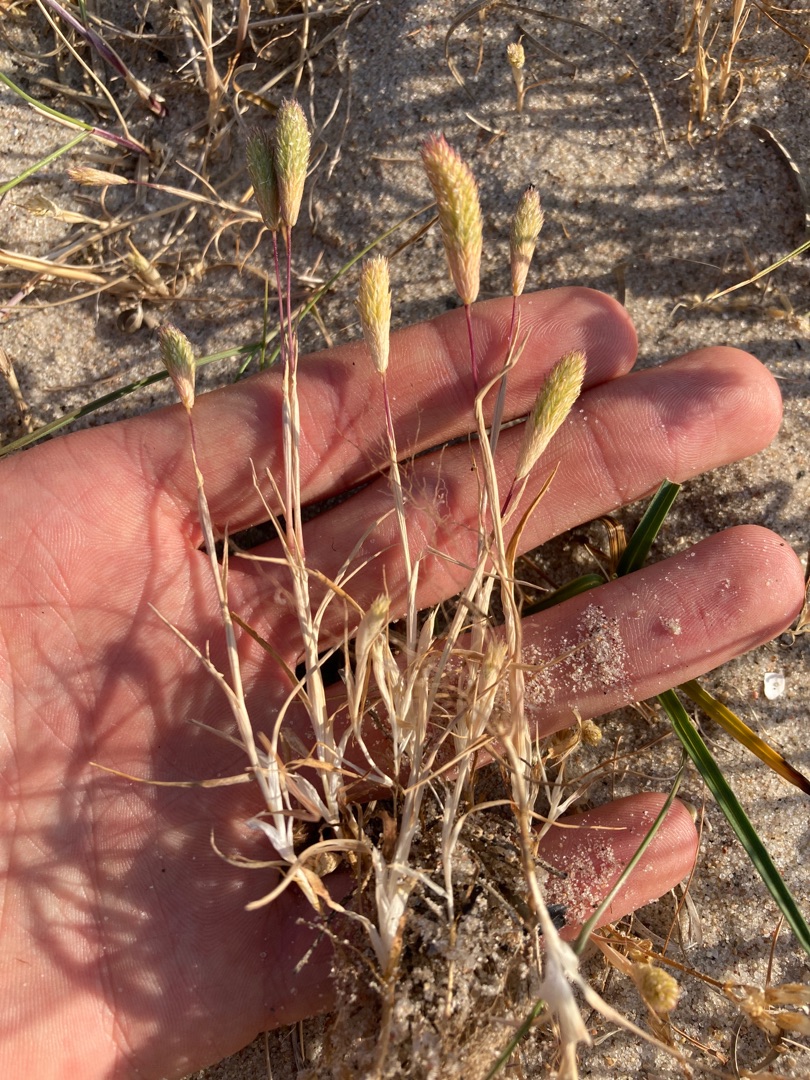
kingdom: Plantae
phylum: Tracheophyta
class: Liliopsida
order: Poales
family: Poaceae
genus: Phleum
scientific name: Phleum arenarium
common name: Sand-rottehale
